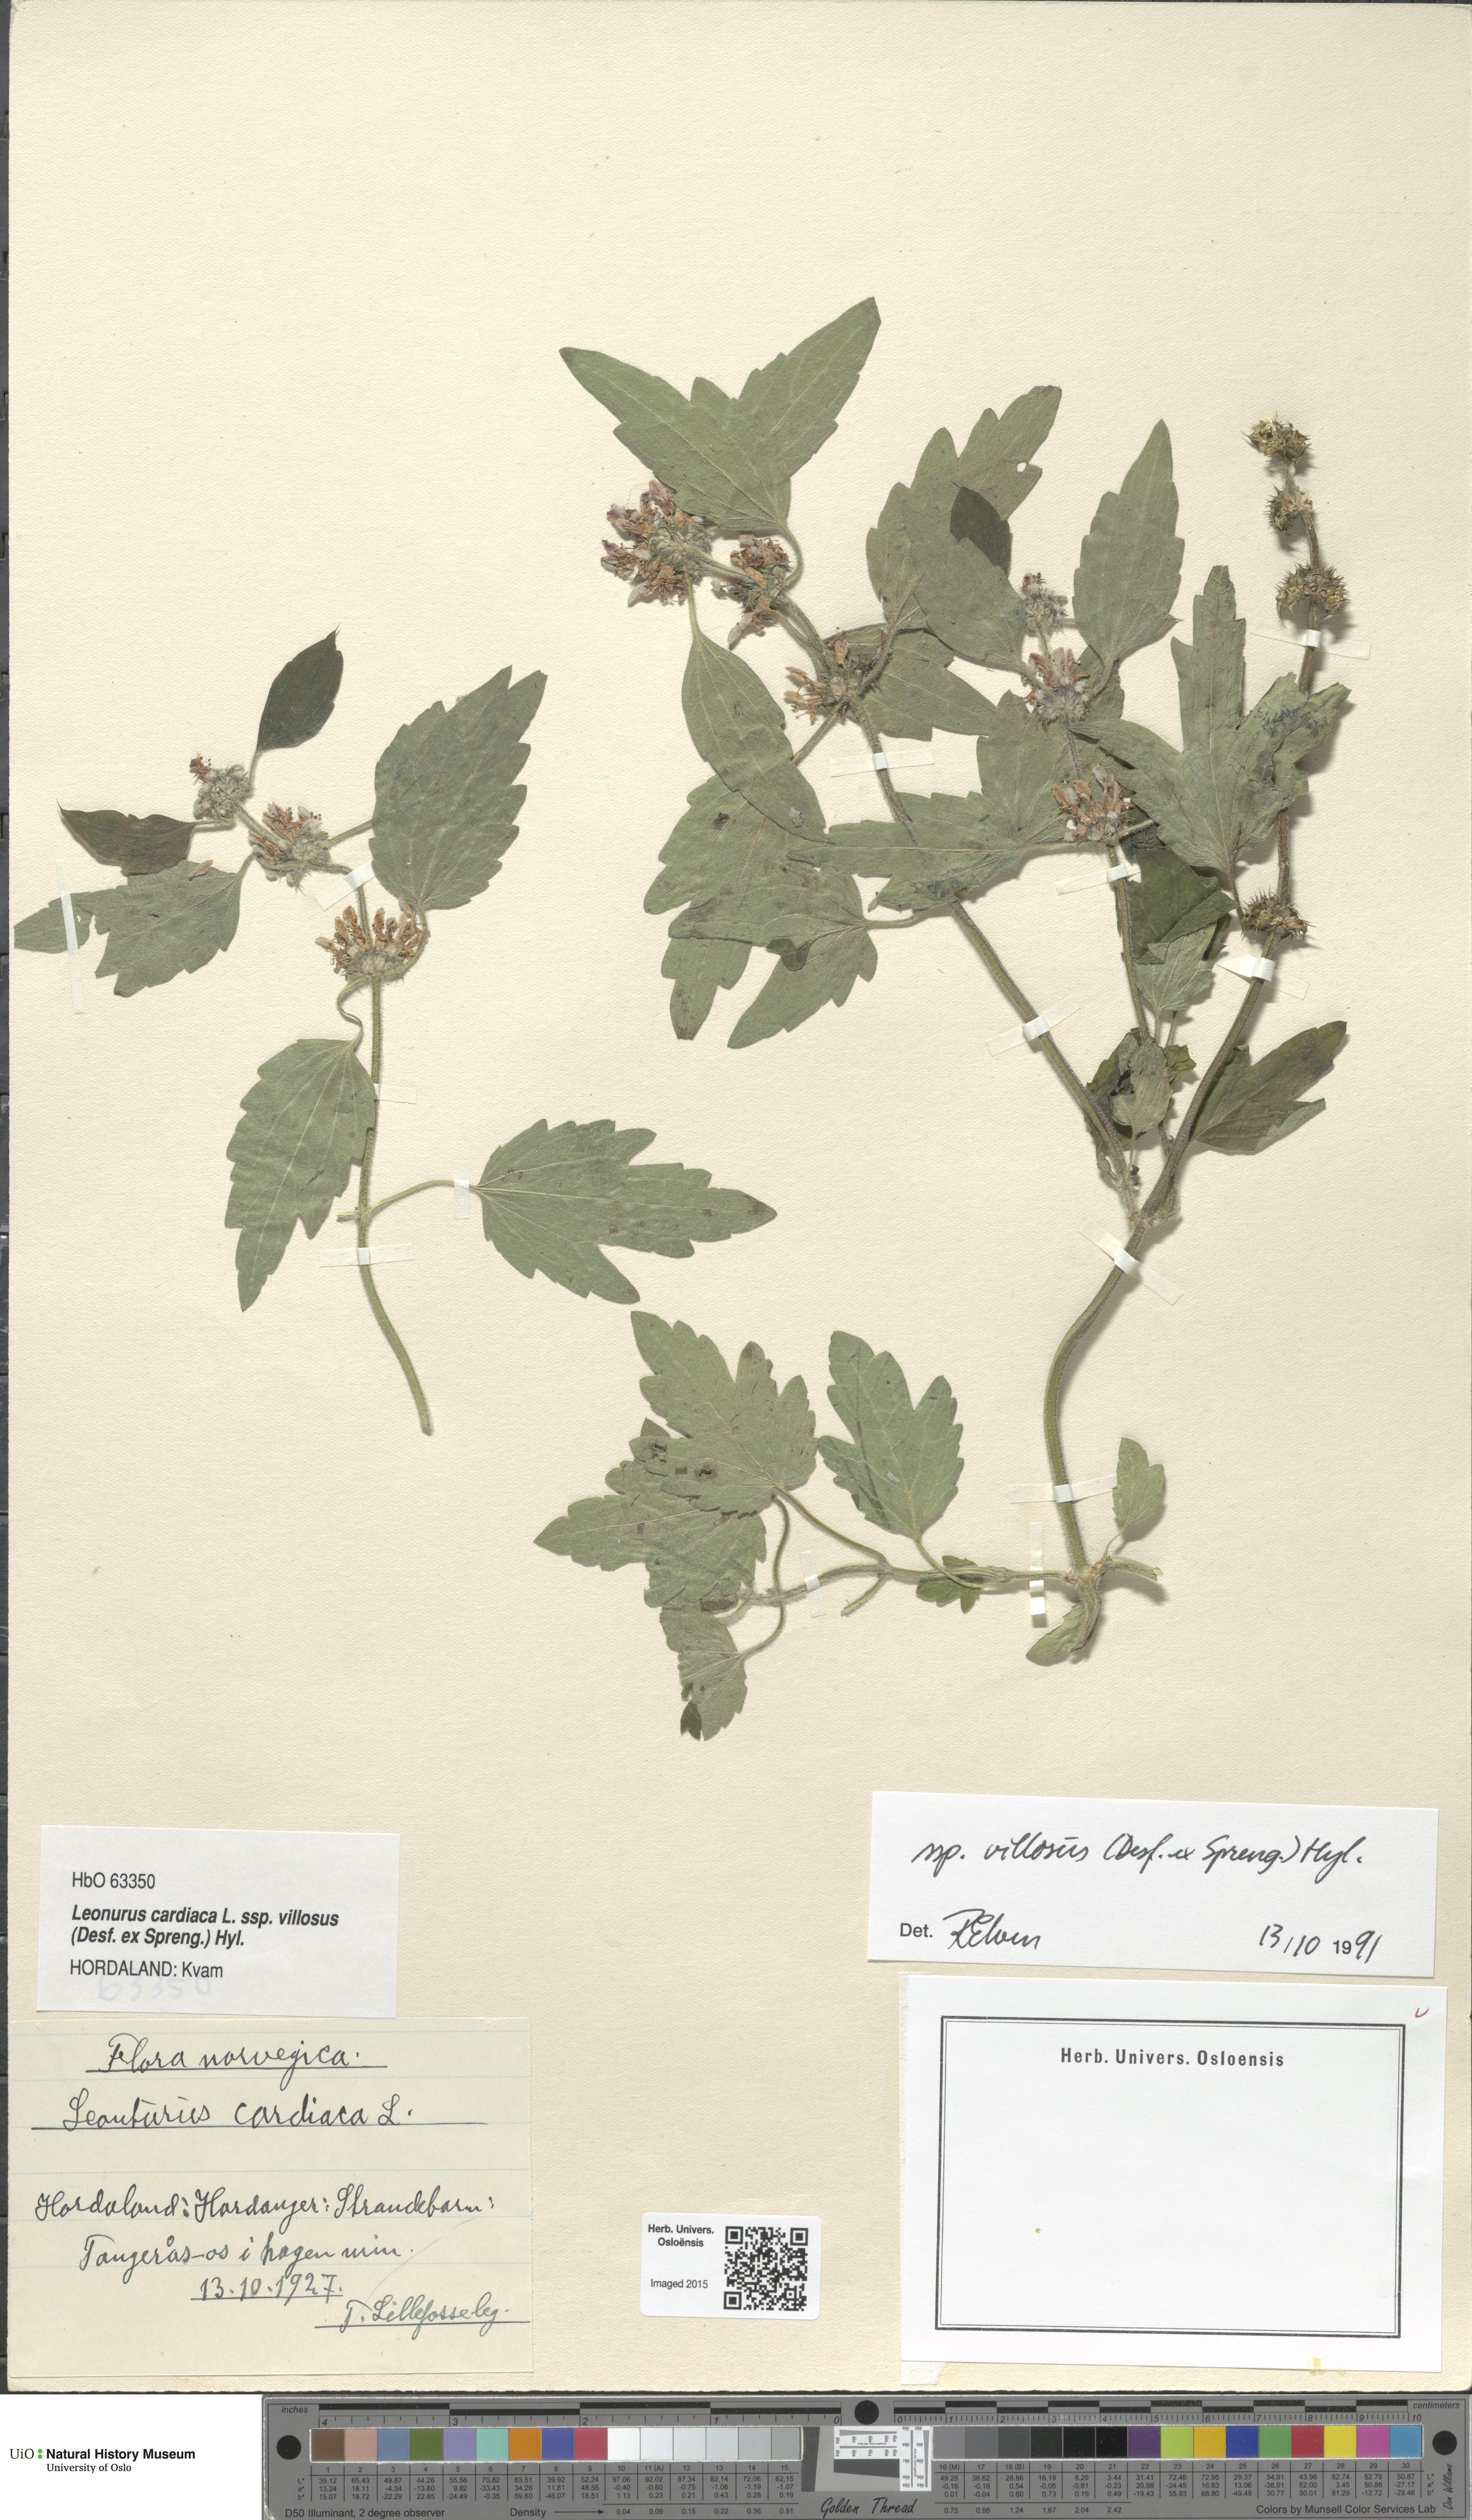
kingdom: Plantae
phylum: Tracheophyta
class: Magnoliopsida
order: Lamiales
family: Lamiaceae
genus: Leonurus
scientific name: Leonurus quinquelobatus
